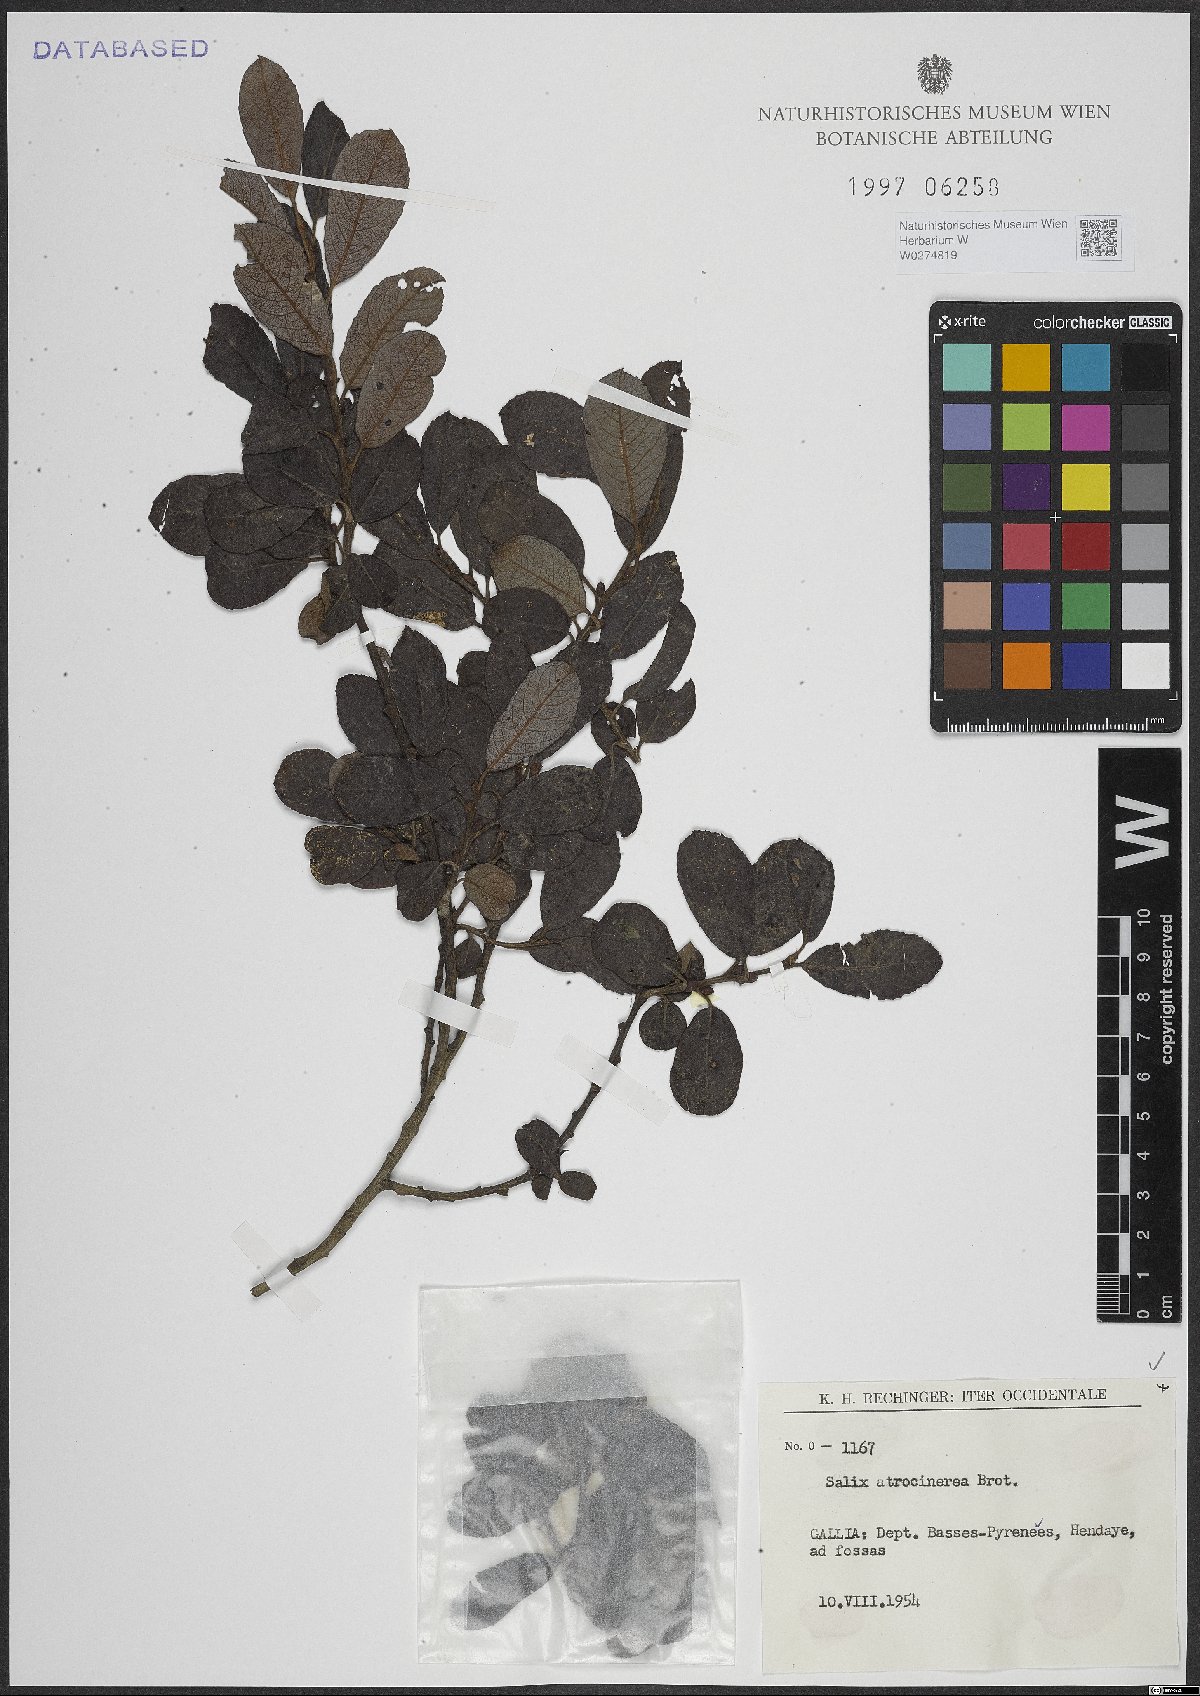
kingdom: Plantae
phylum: Tracheophyta
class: Magnoliopsida
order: Malpighiales
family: Salicaceae
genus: Salix
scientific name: Salix atrocinerea
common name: Rusty willow
